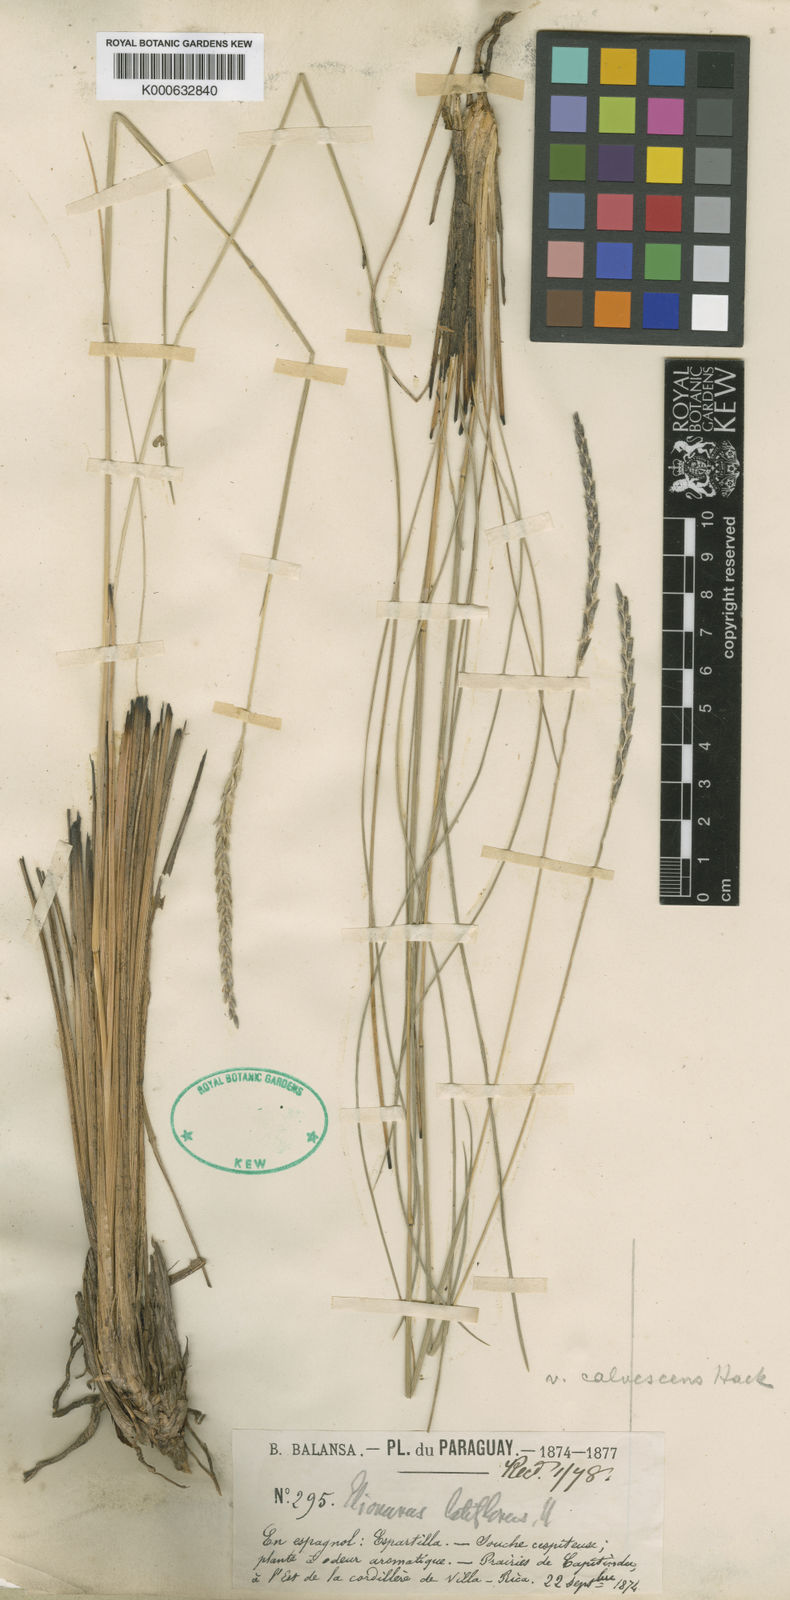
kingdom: Plantae
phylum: Tracheophyta
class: Liliopsida
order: Poales
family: Poaceae
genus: Elionurus
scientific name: Elionurus muticus
